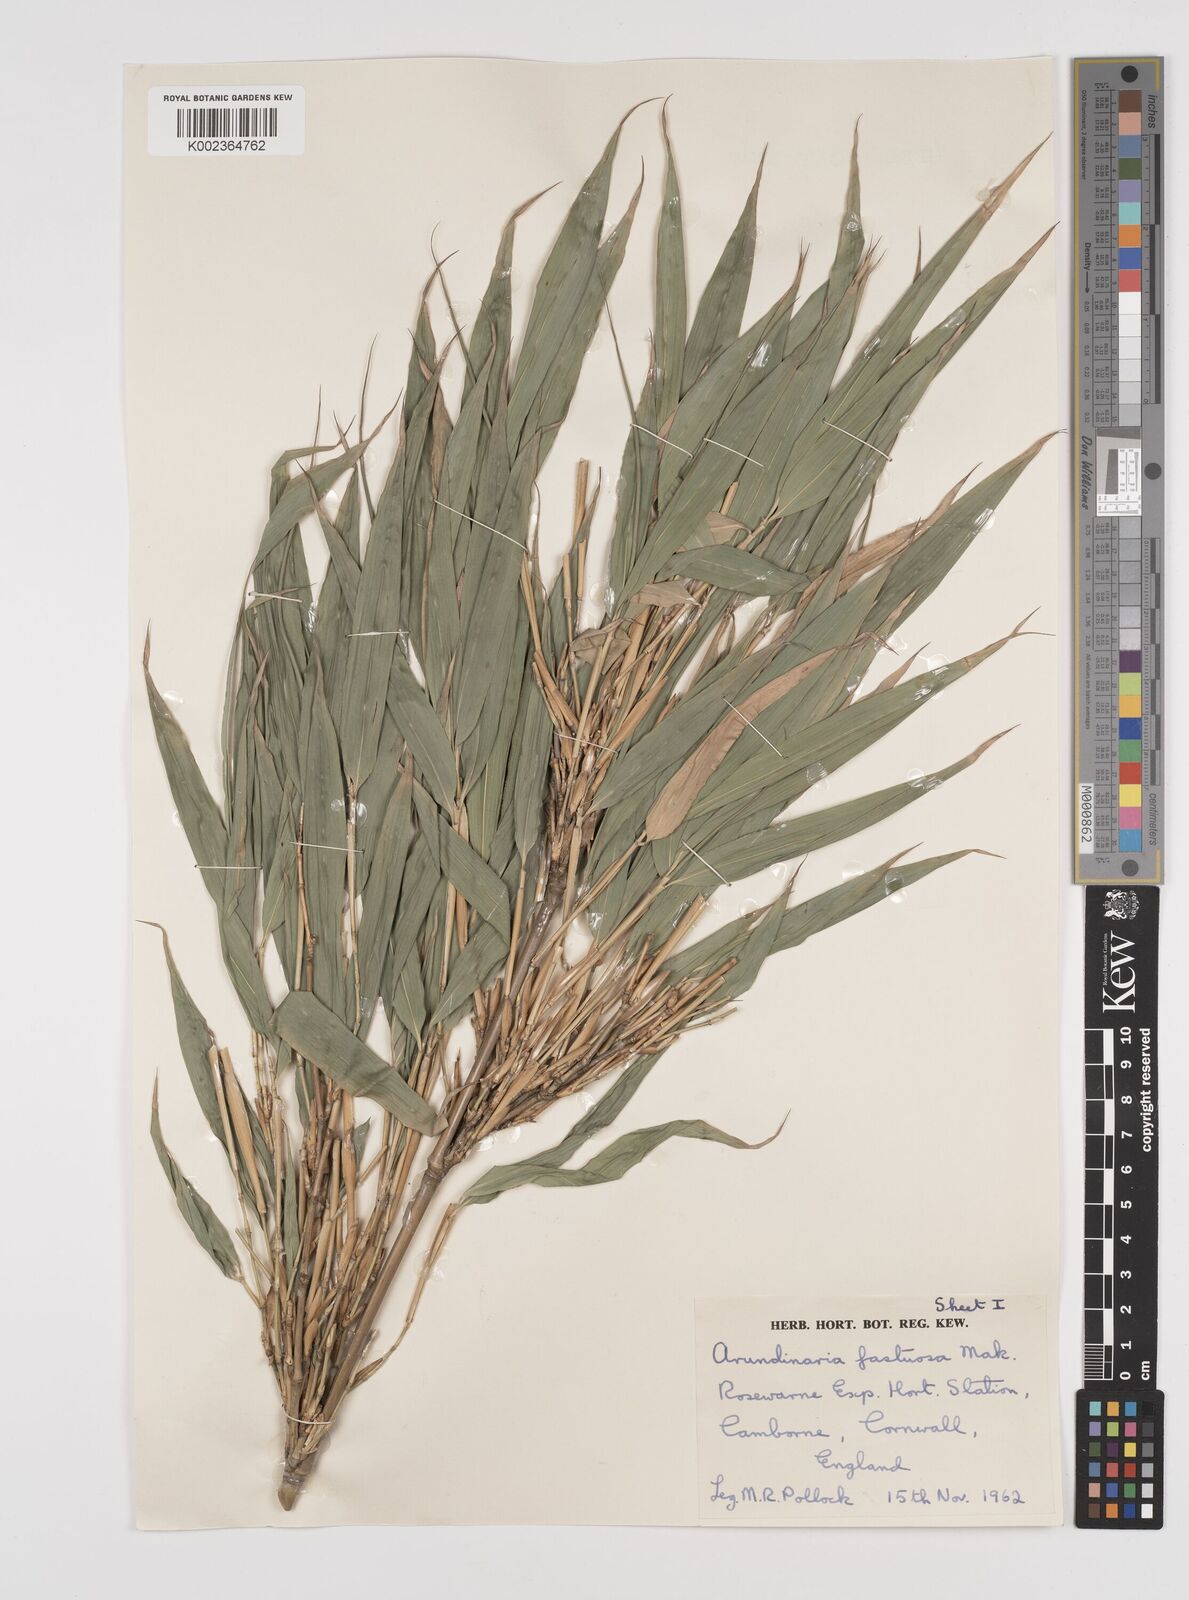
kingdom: Plantae
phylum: Tracheophyta
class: Liliopsida
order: Poales
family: Poaceae
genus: Semiarundinaria
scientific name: Semiarundinaria fastuosa
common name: Narihira bamboo
